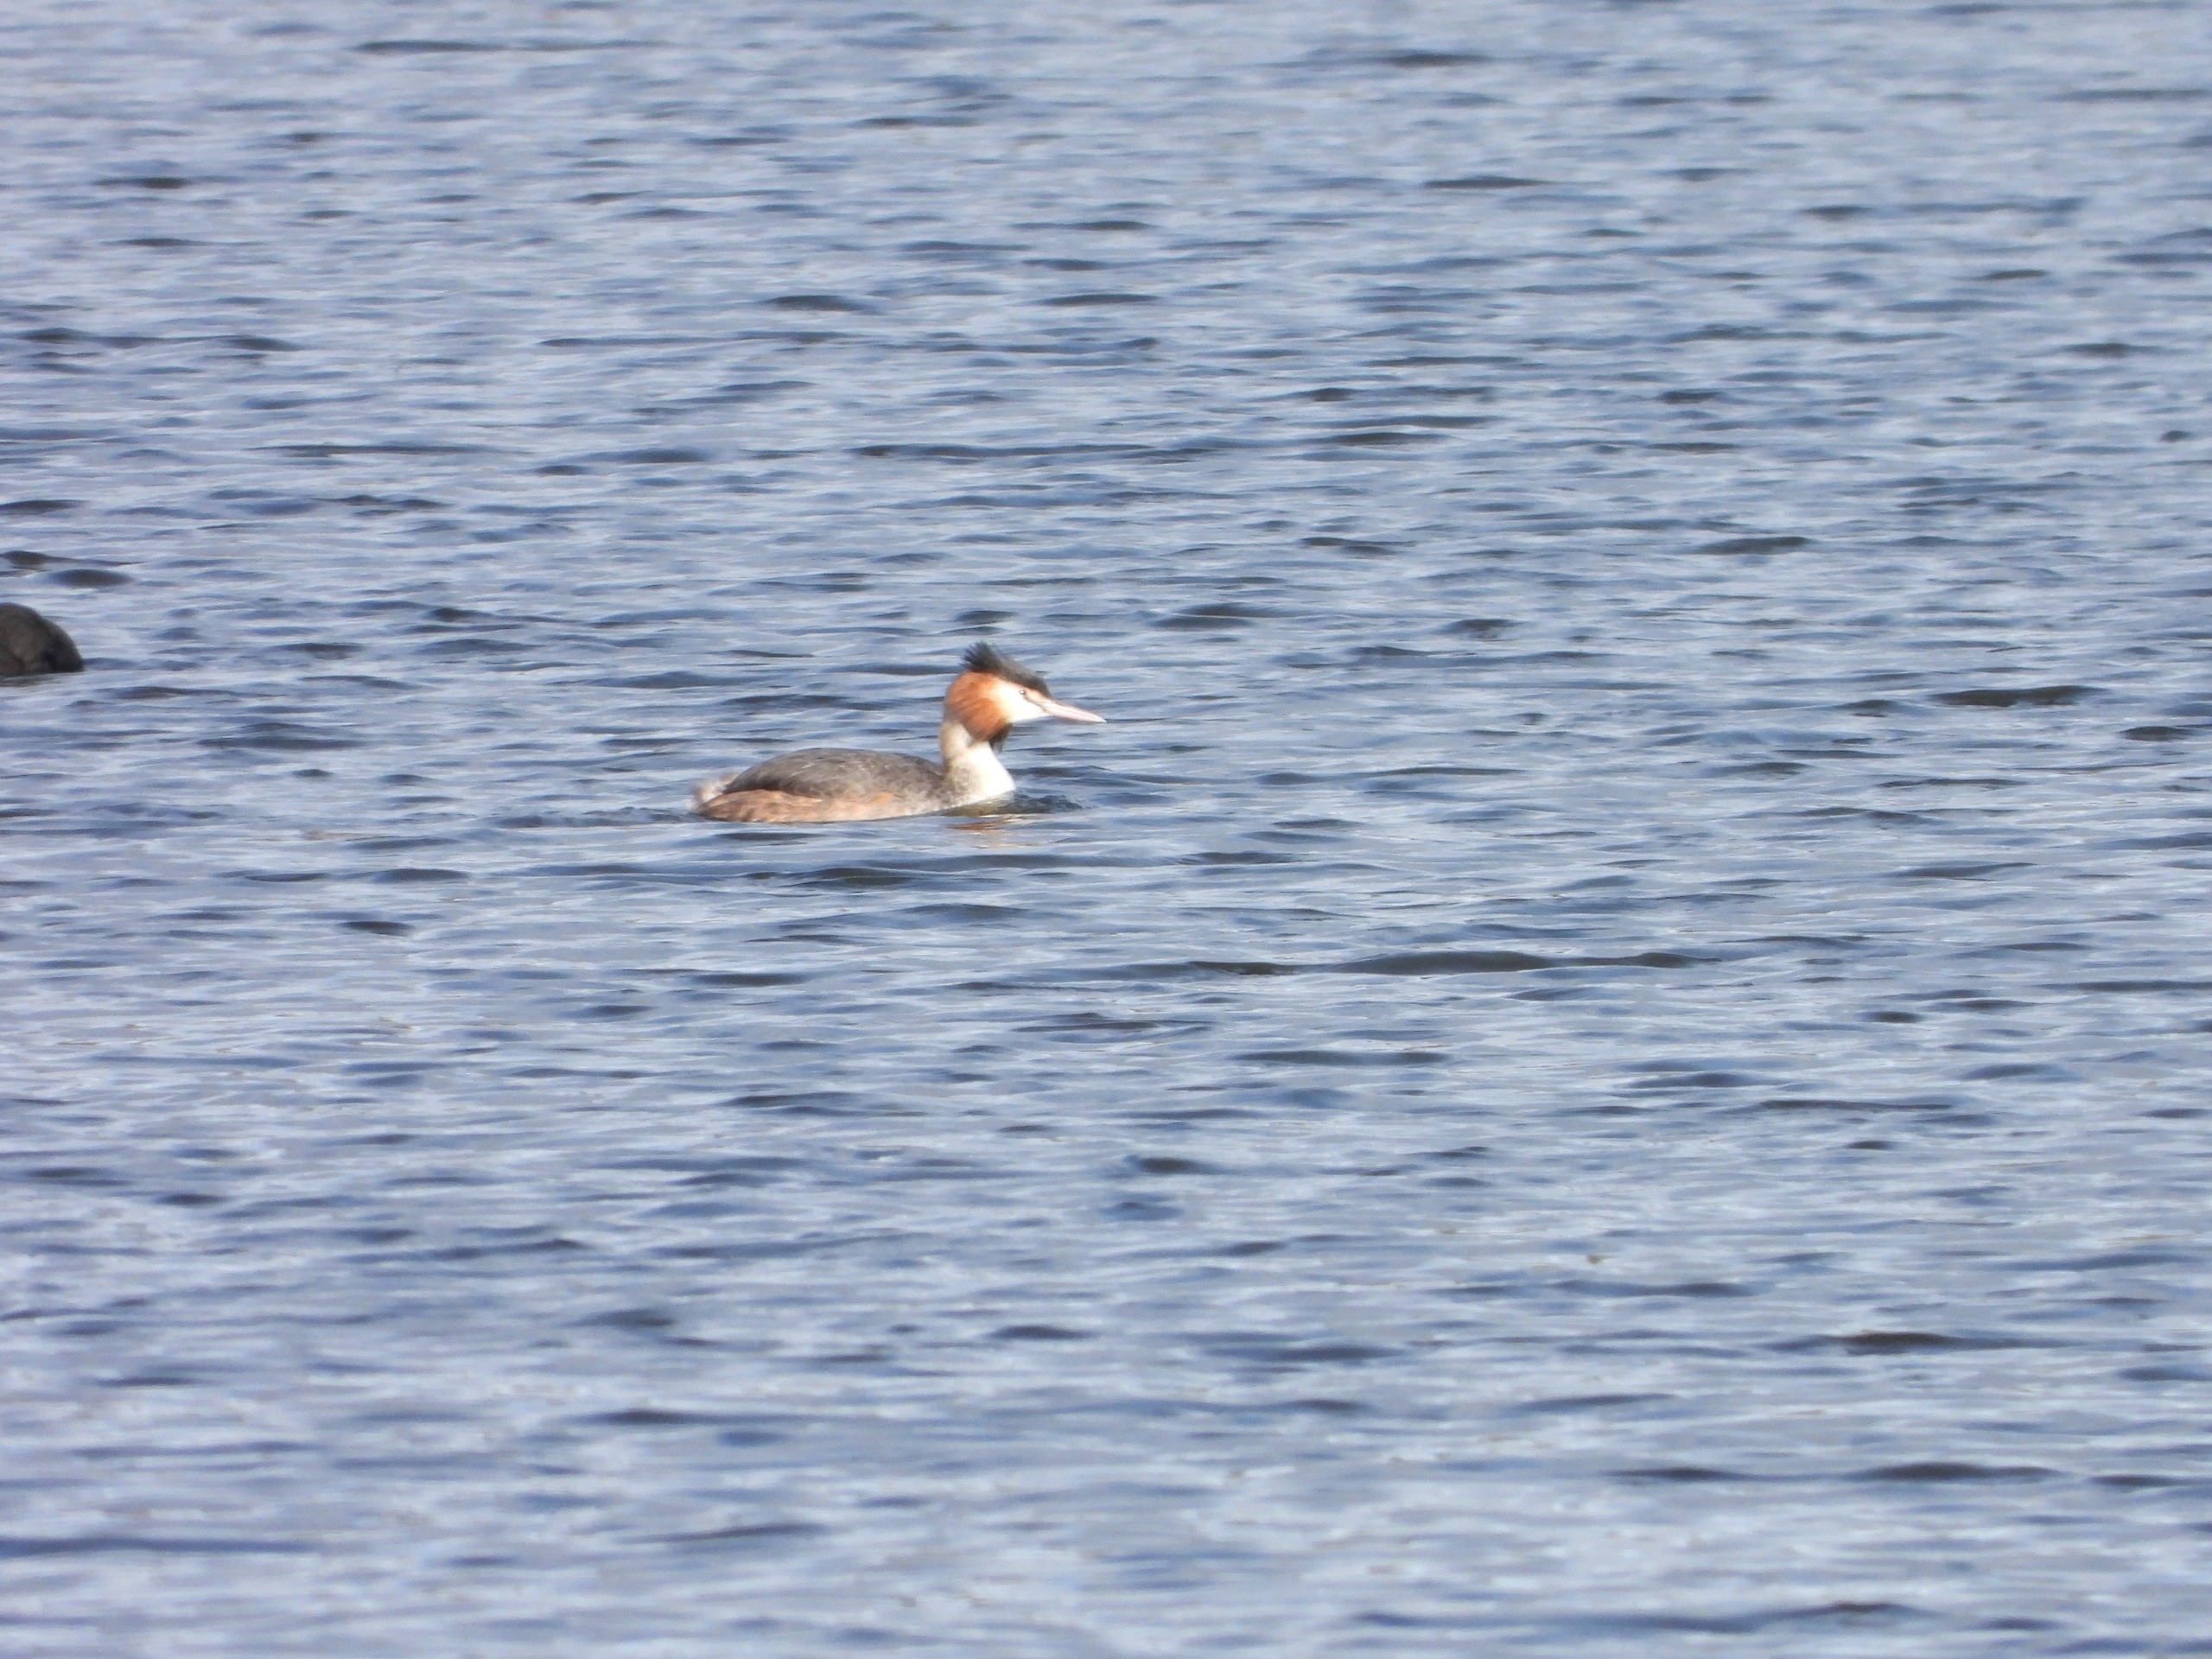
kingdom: Animalia
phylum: Chordata
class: Aves
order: Podicipediformes
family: Podicipedidae
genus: Podiceps
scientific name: Podiceps cristatus
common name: Toppet lappedykker
